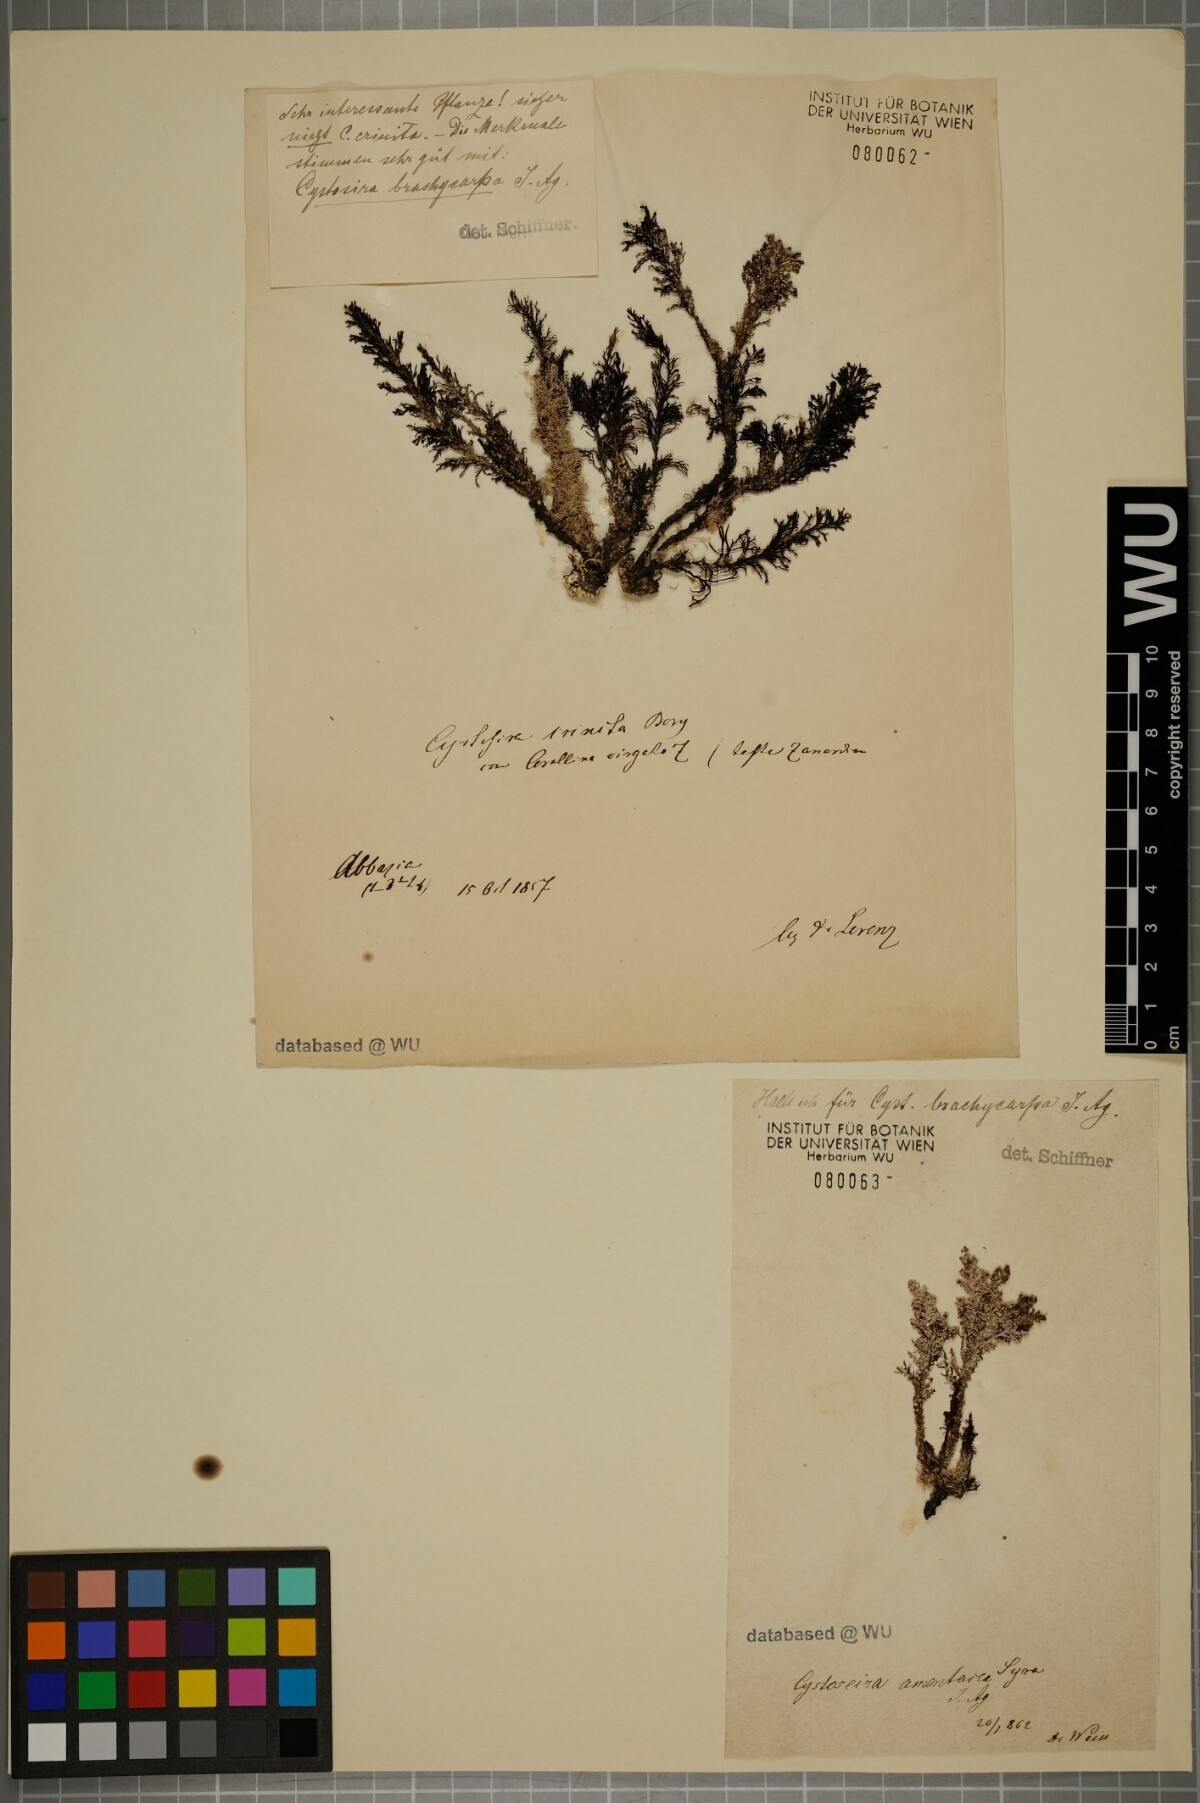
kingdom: Chromista
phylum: Ochrophyta
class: Phaeophyceae
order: Fucales
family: Sargassaceae
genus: Cystoseira
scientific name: Cystoseira Ericaria brachycarpa
